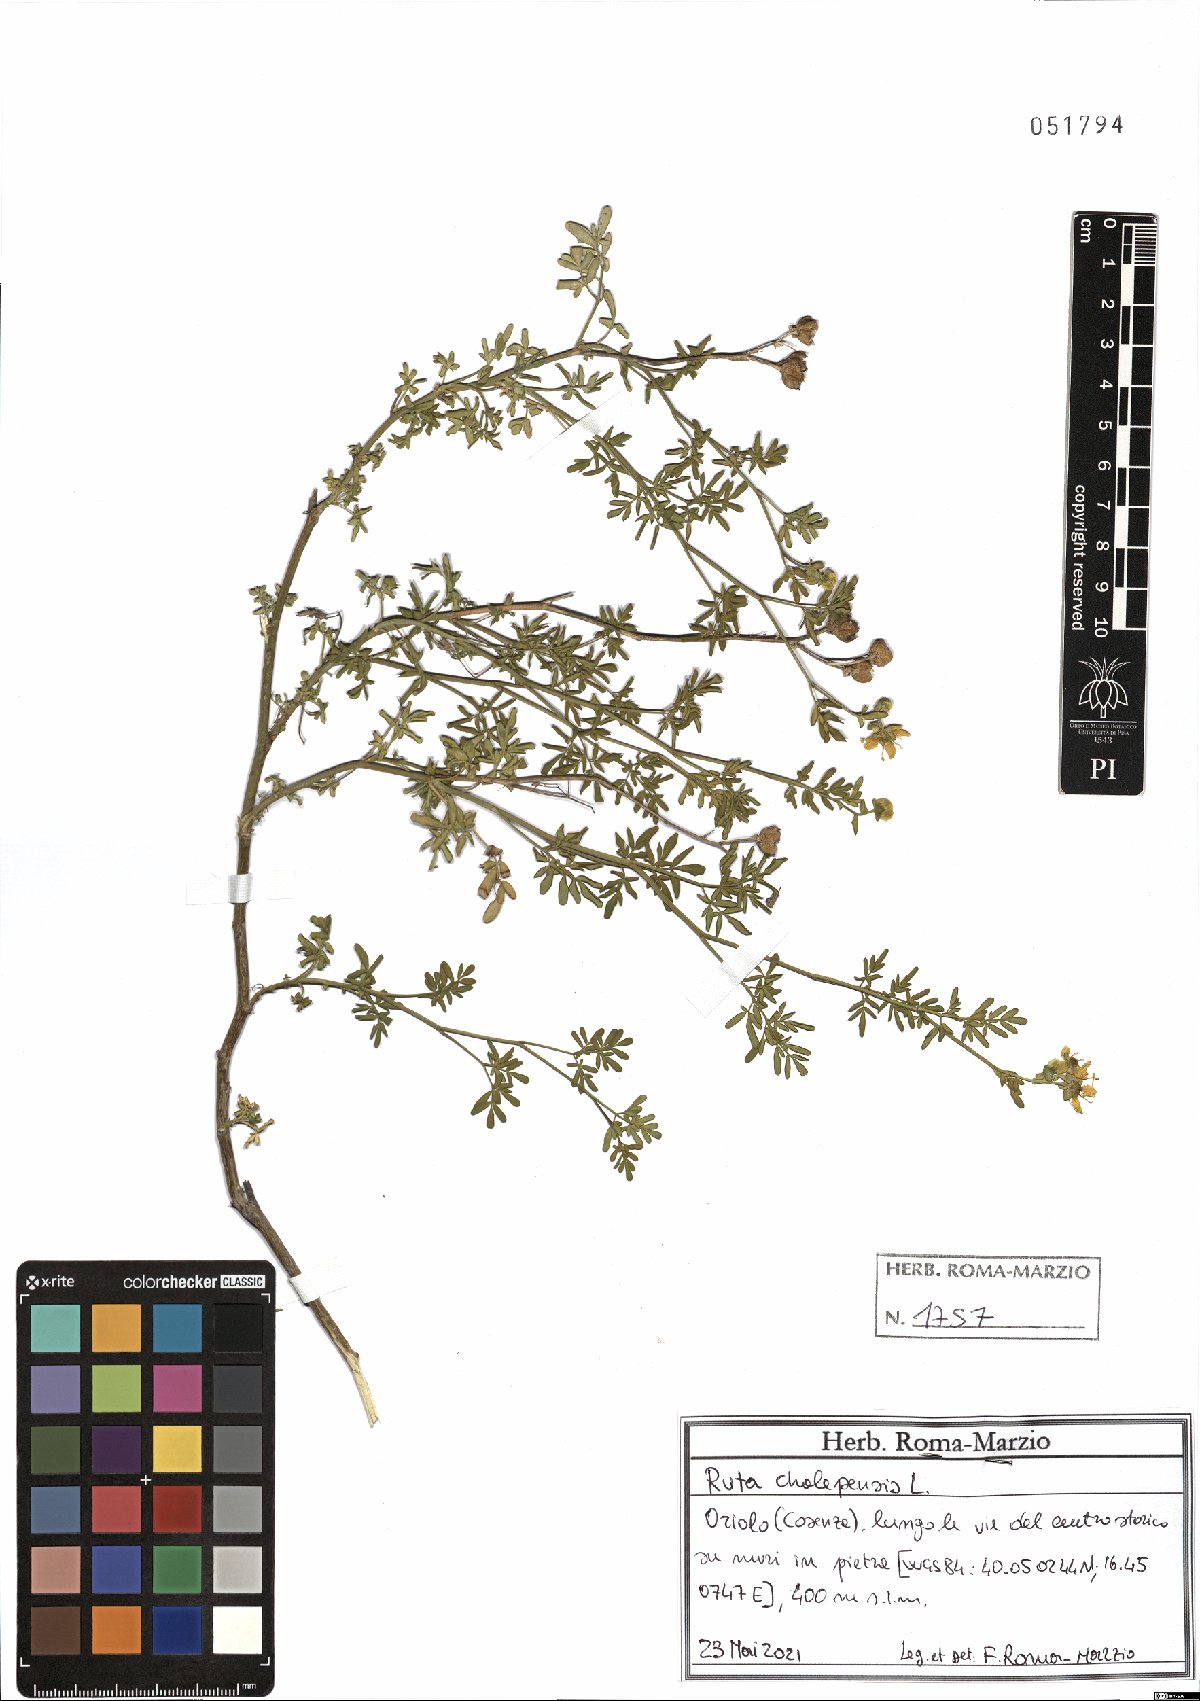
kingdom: Plantae
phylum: Tracheophyta
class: Magnoliopsida
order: Sapindales
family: Rutaceae
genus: Ruta
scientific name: Ruta chalepensis
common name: Fringed rue
